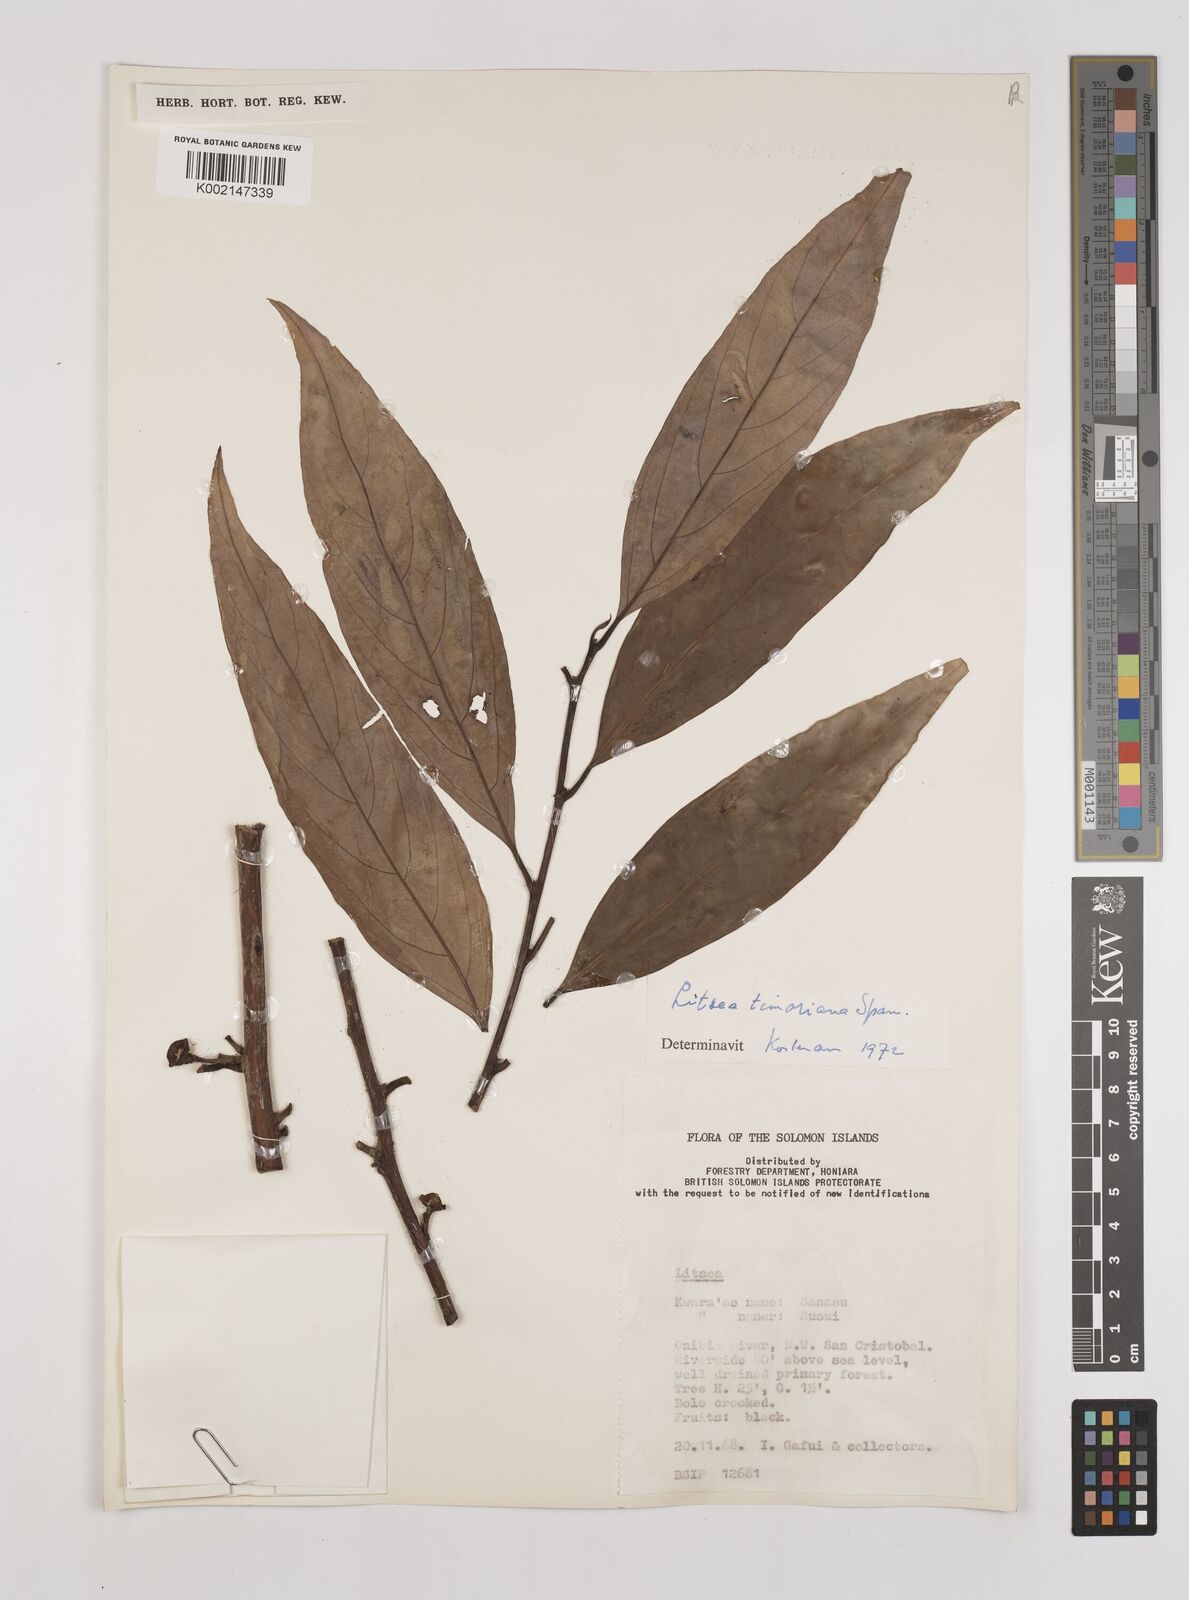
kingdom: Plantae
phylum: Tracheophyta
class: Magnoliopsida
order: Laurales
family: Lauraceae
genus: Litsea
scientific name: Litsea timoriana
